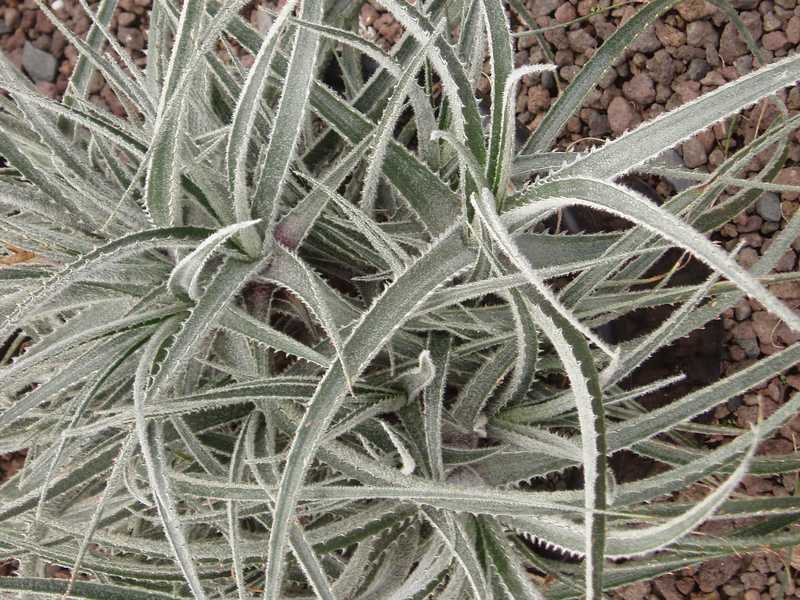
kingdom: Plantae
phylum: Tracheophyta
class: Liliopsida
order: Poales
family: Bromeliaceae
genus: Puya
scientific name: Puya
